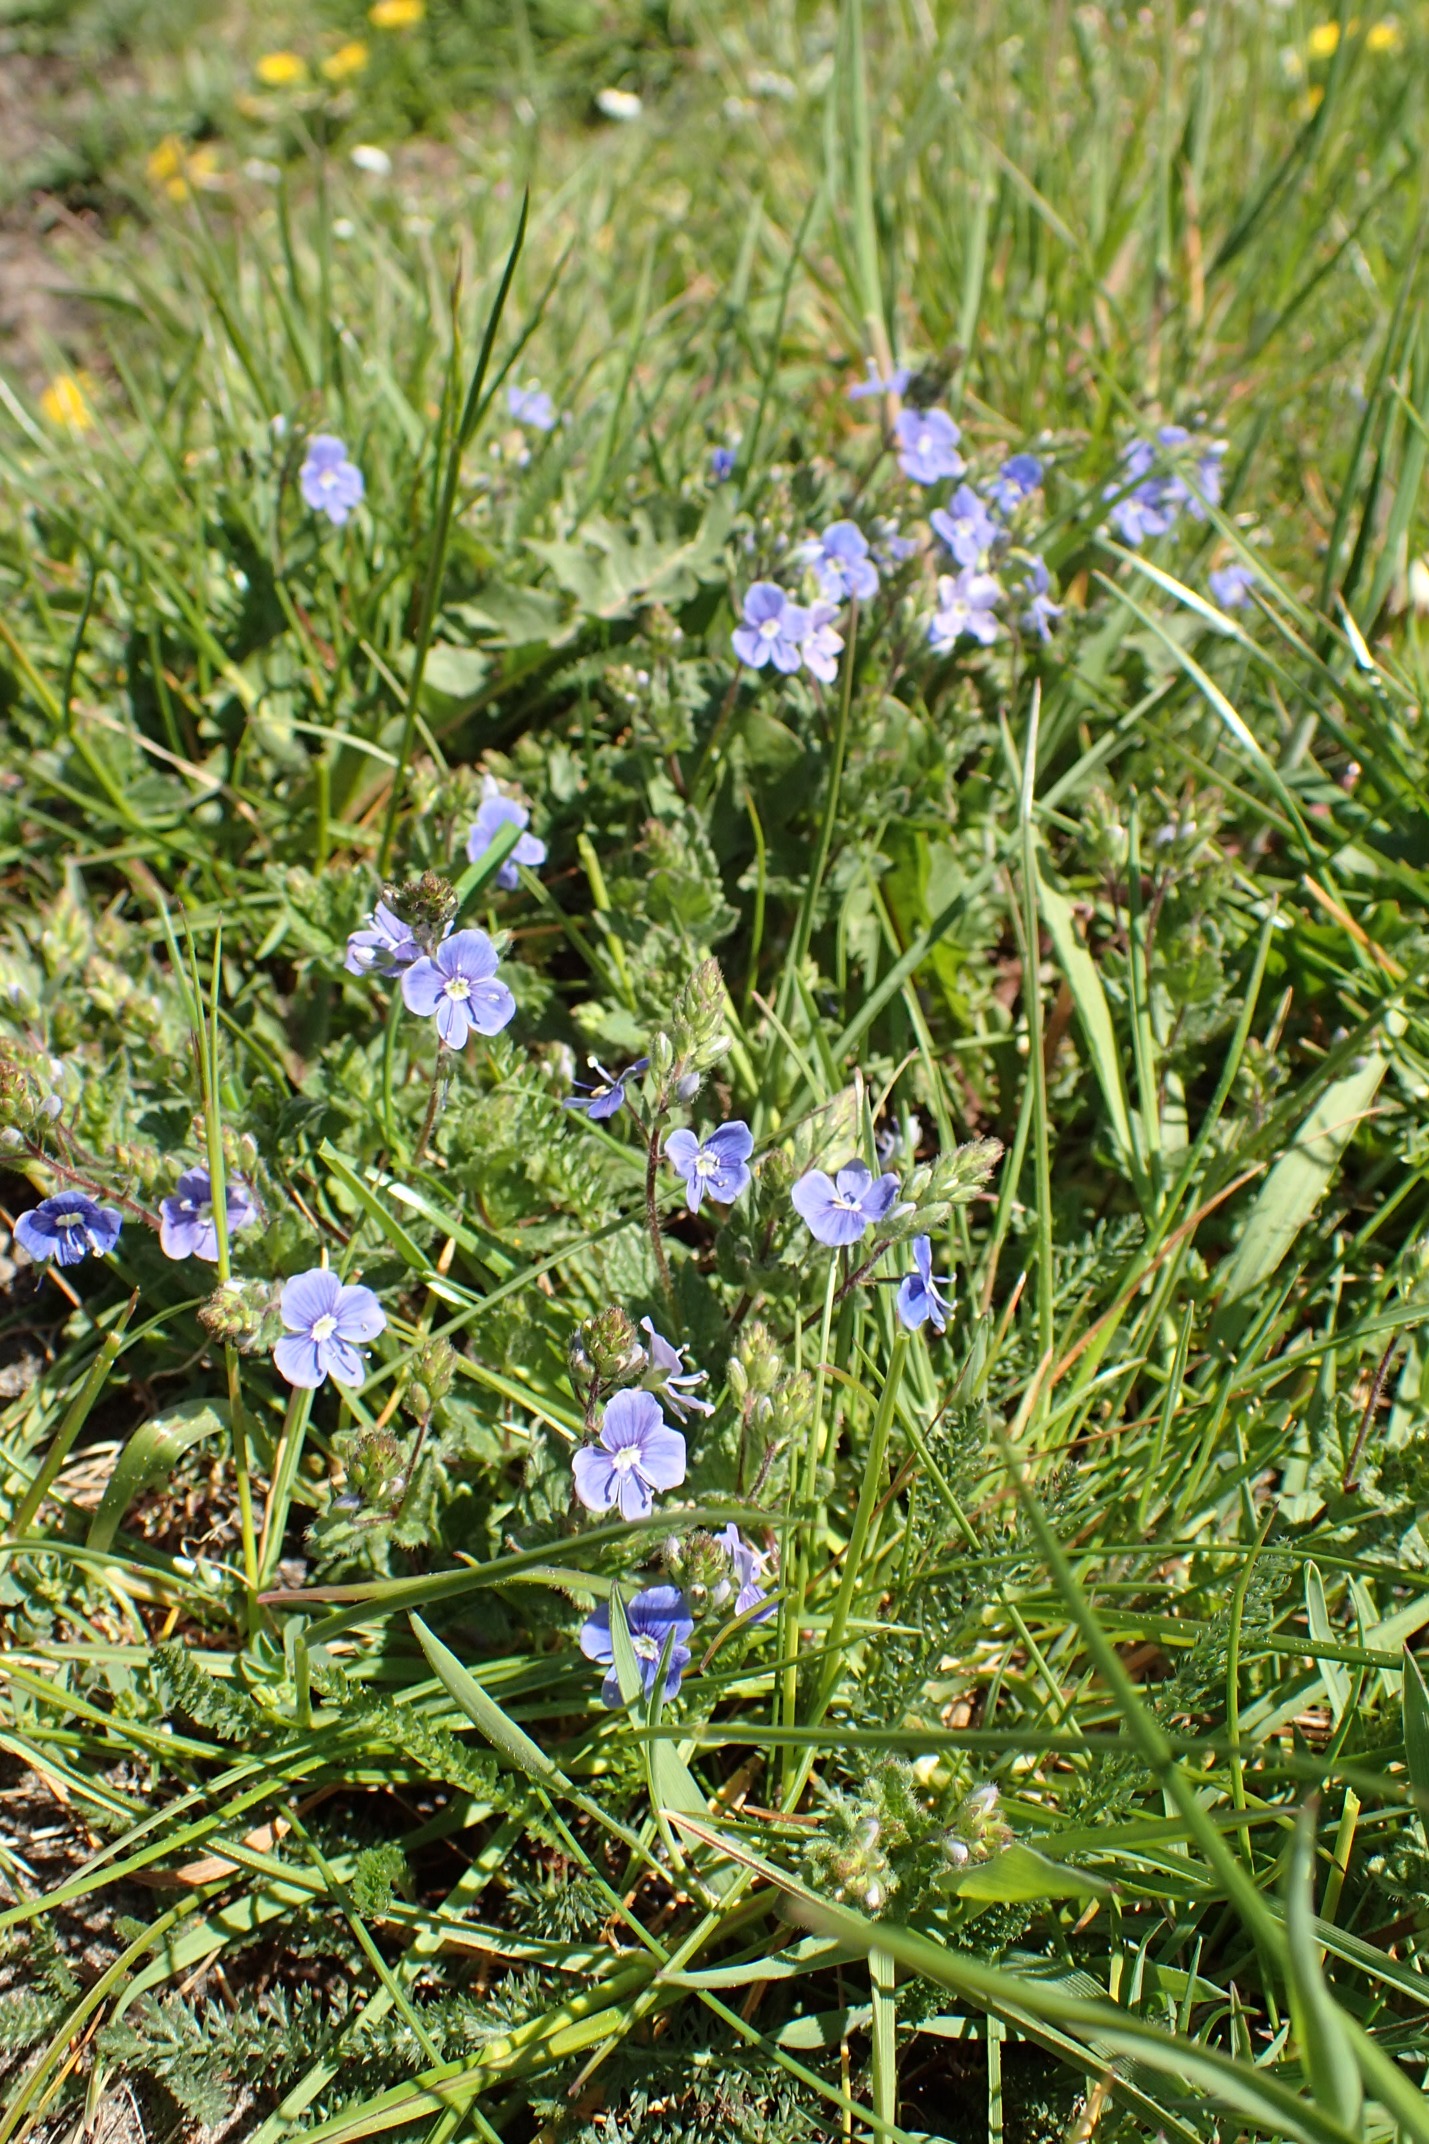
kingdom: Plantae
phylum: Tracheophyta
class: Magnoliopsida
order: Lamiales
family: Plantaginaceae
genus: Veronica
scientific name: Veronica chamaedrys
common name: Tveskægget ærenpris
